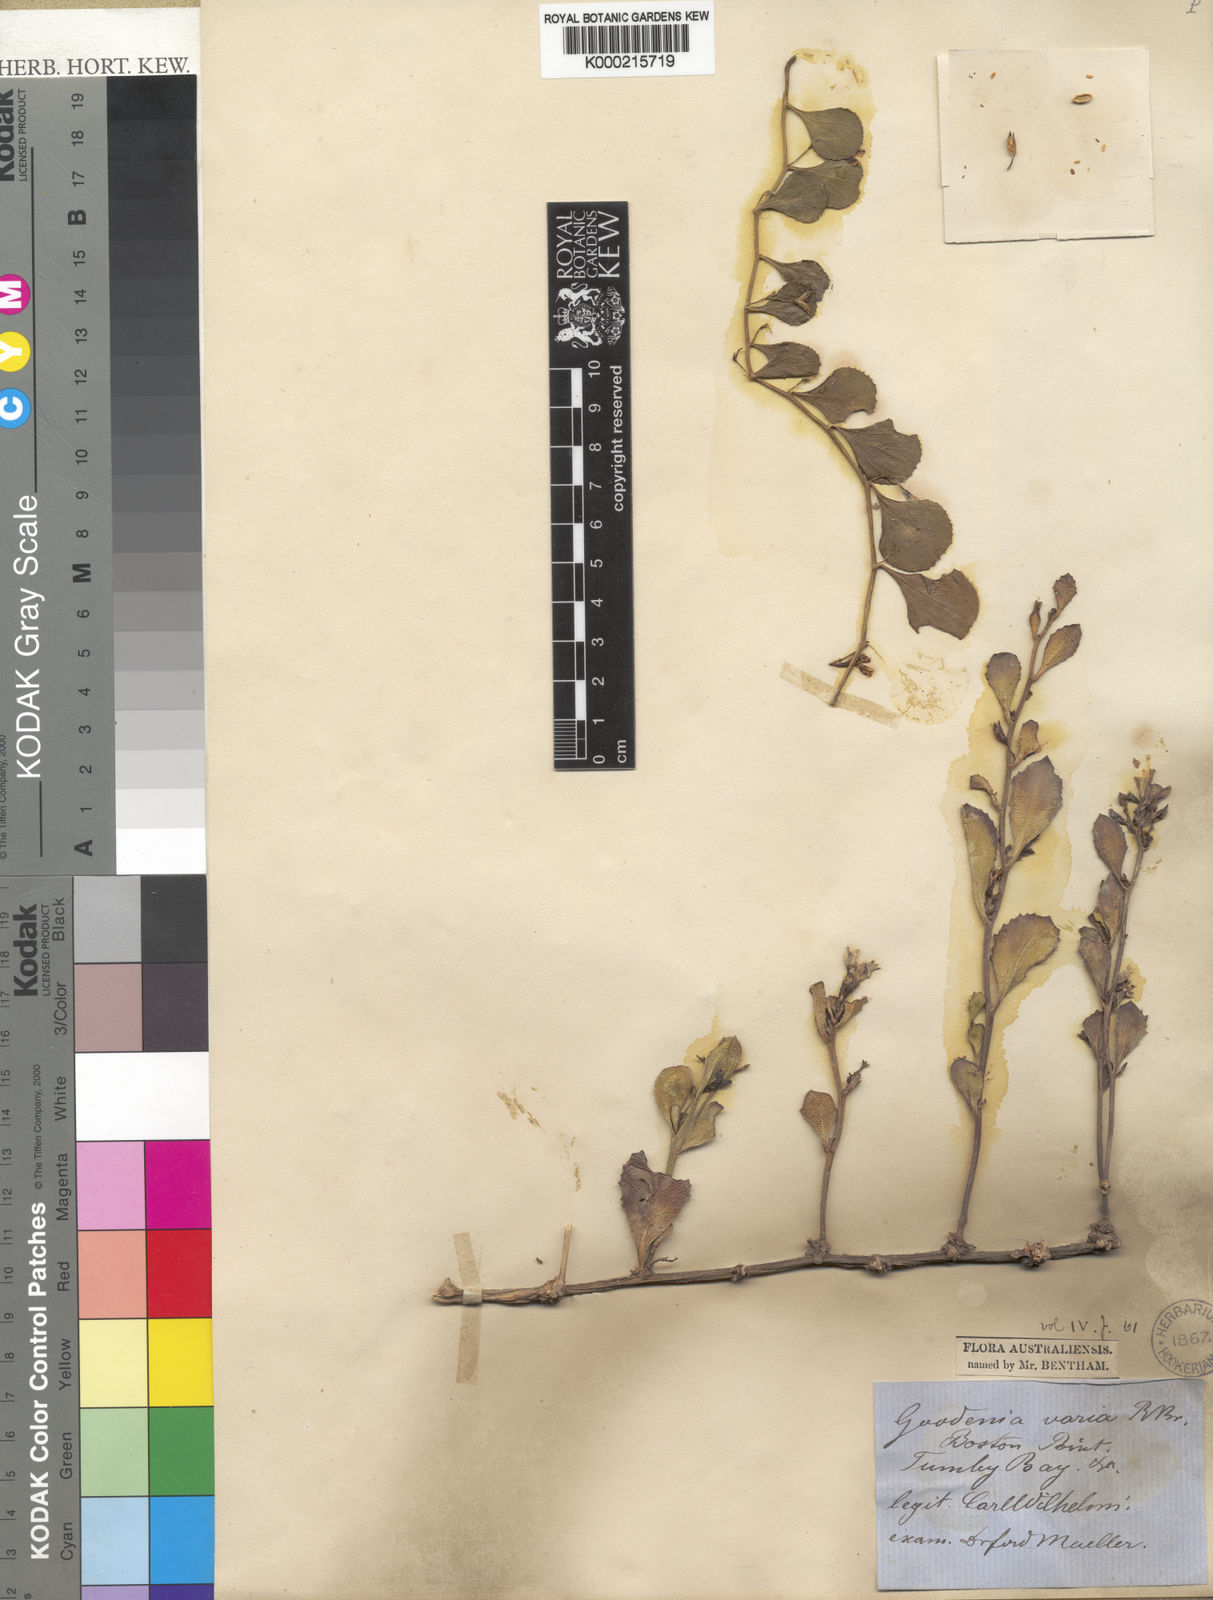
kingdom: Plantae
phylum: Tracheophyta
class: Magnoliopsida
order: Asterales
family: Goodeniaceae
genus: Goodenia
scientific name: Goodenia varia
